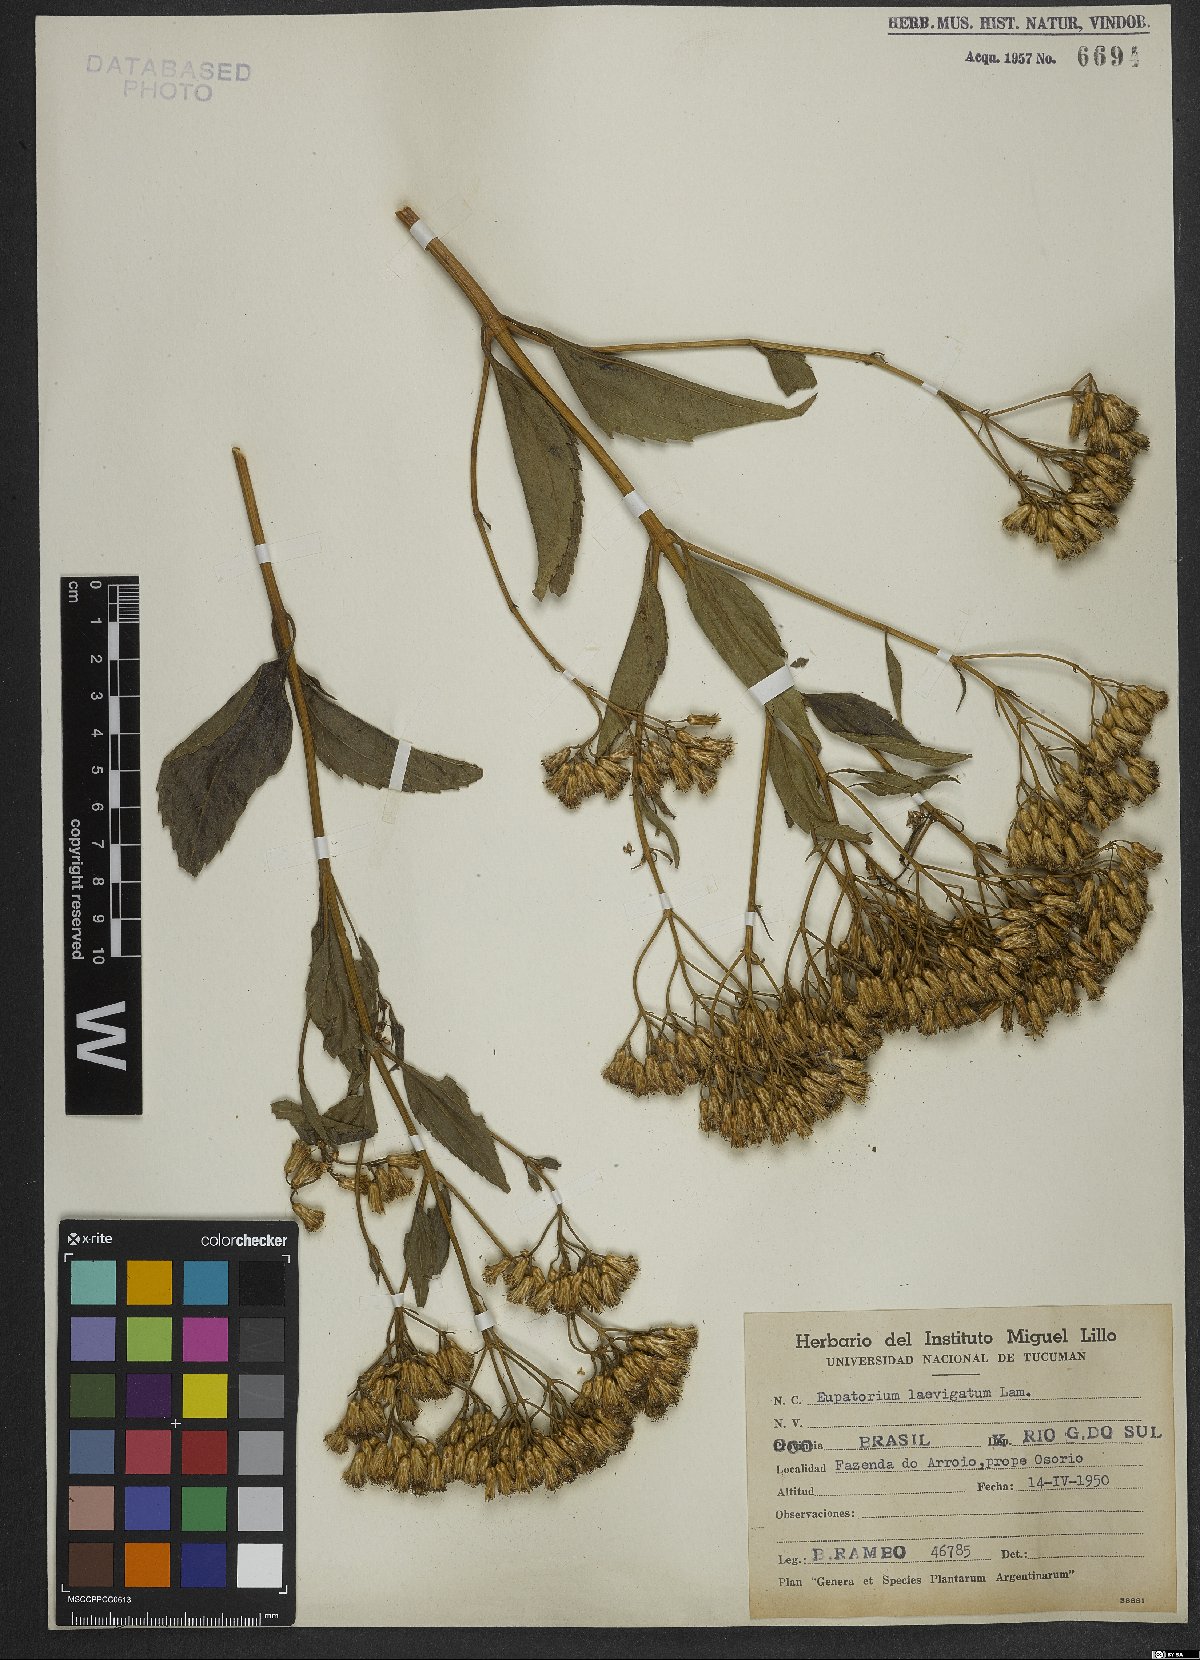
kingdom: Plantae
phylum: Tracheophyta
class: Magnoliopsida
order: Asterales
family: Asteraceae
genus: Eupatorium
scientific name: Eupatorium laevigatum
